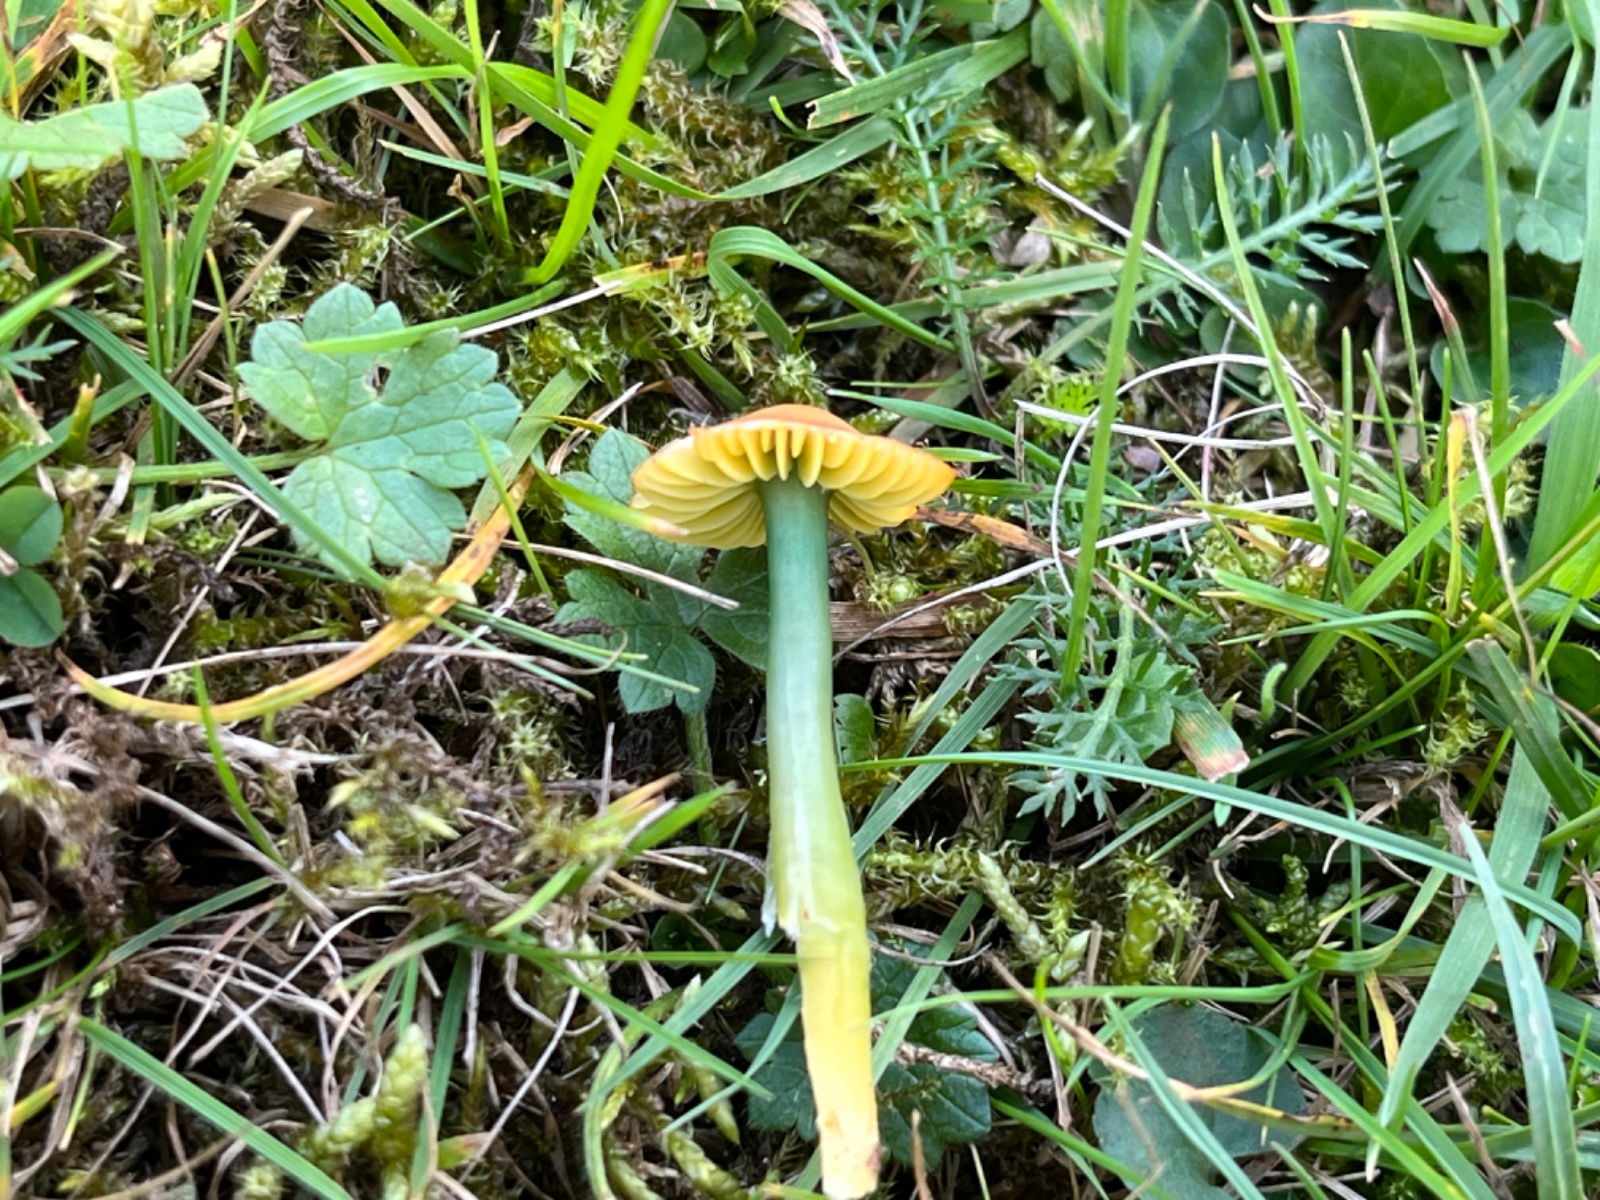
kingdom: Fungi
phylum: Basidiomycota
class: Agaricomycetes
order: Agaricales
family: Hygrophoraceae
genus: Gliophorus
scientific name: Gliophorus psittacinus
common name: papegøje-vokshat
